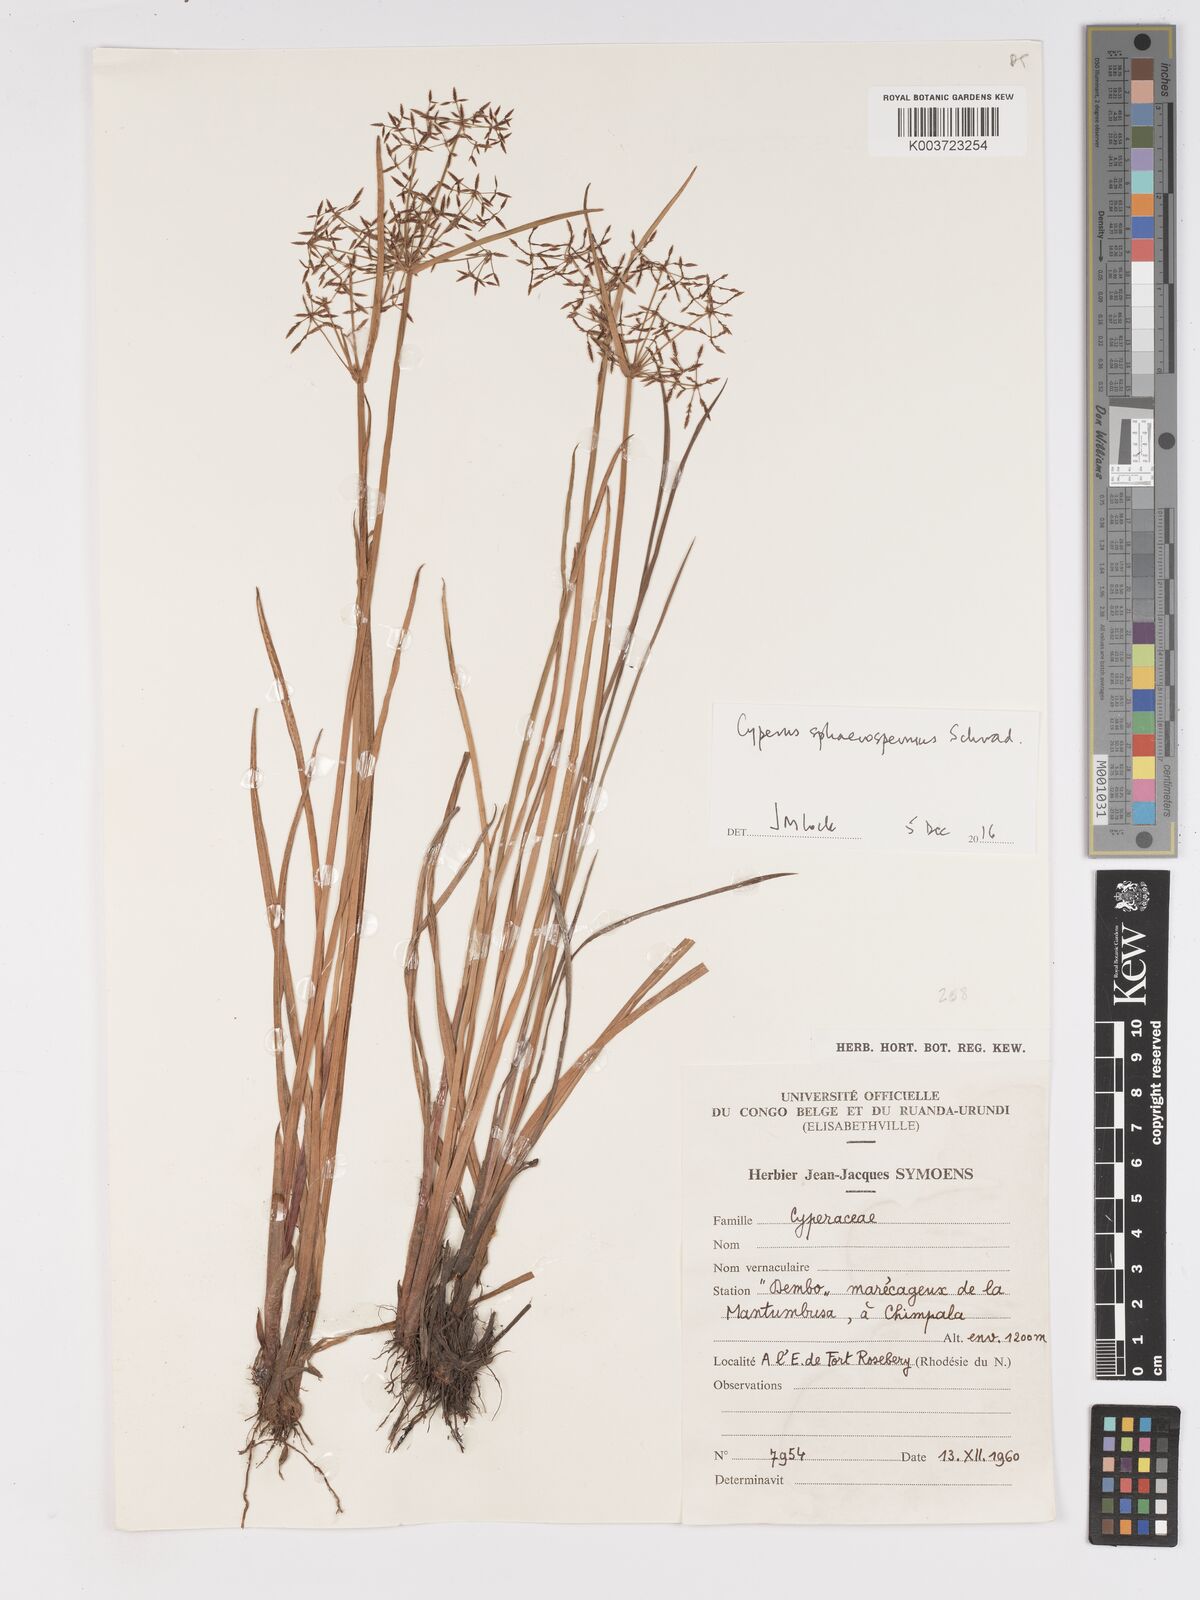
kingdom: Plantae
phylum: Tracheophyta
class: Liliopsida
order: Poales
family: Cyperaceae
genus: Cyperus
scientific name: Cyperus denudatus
